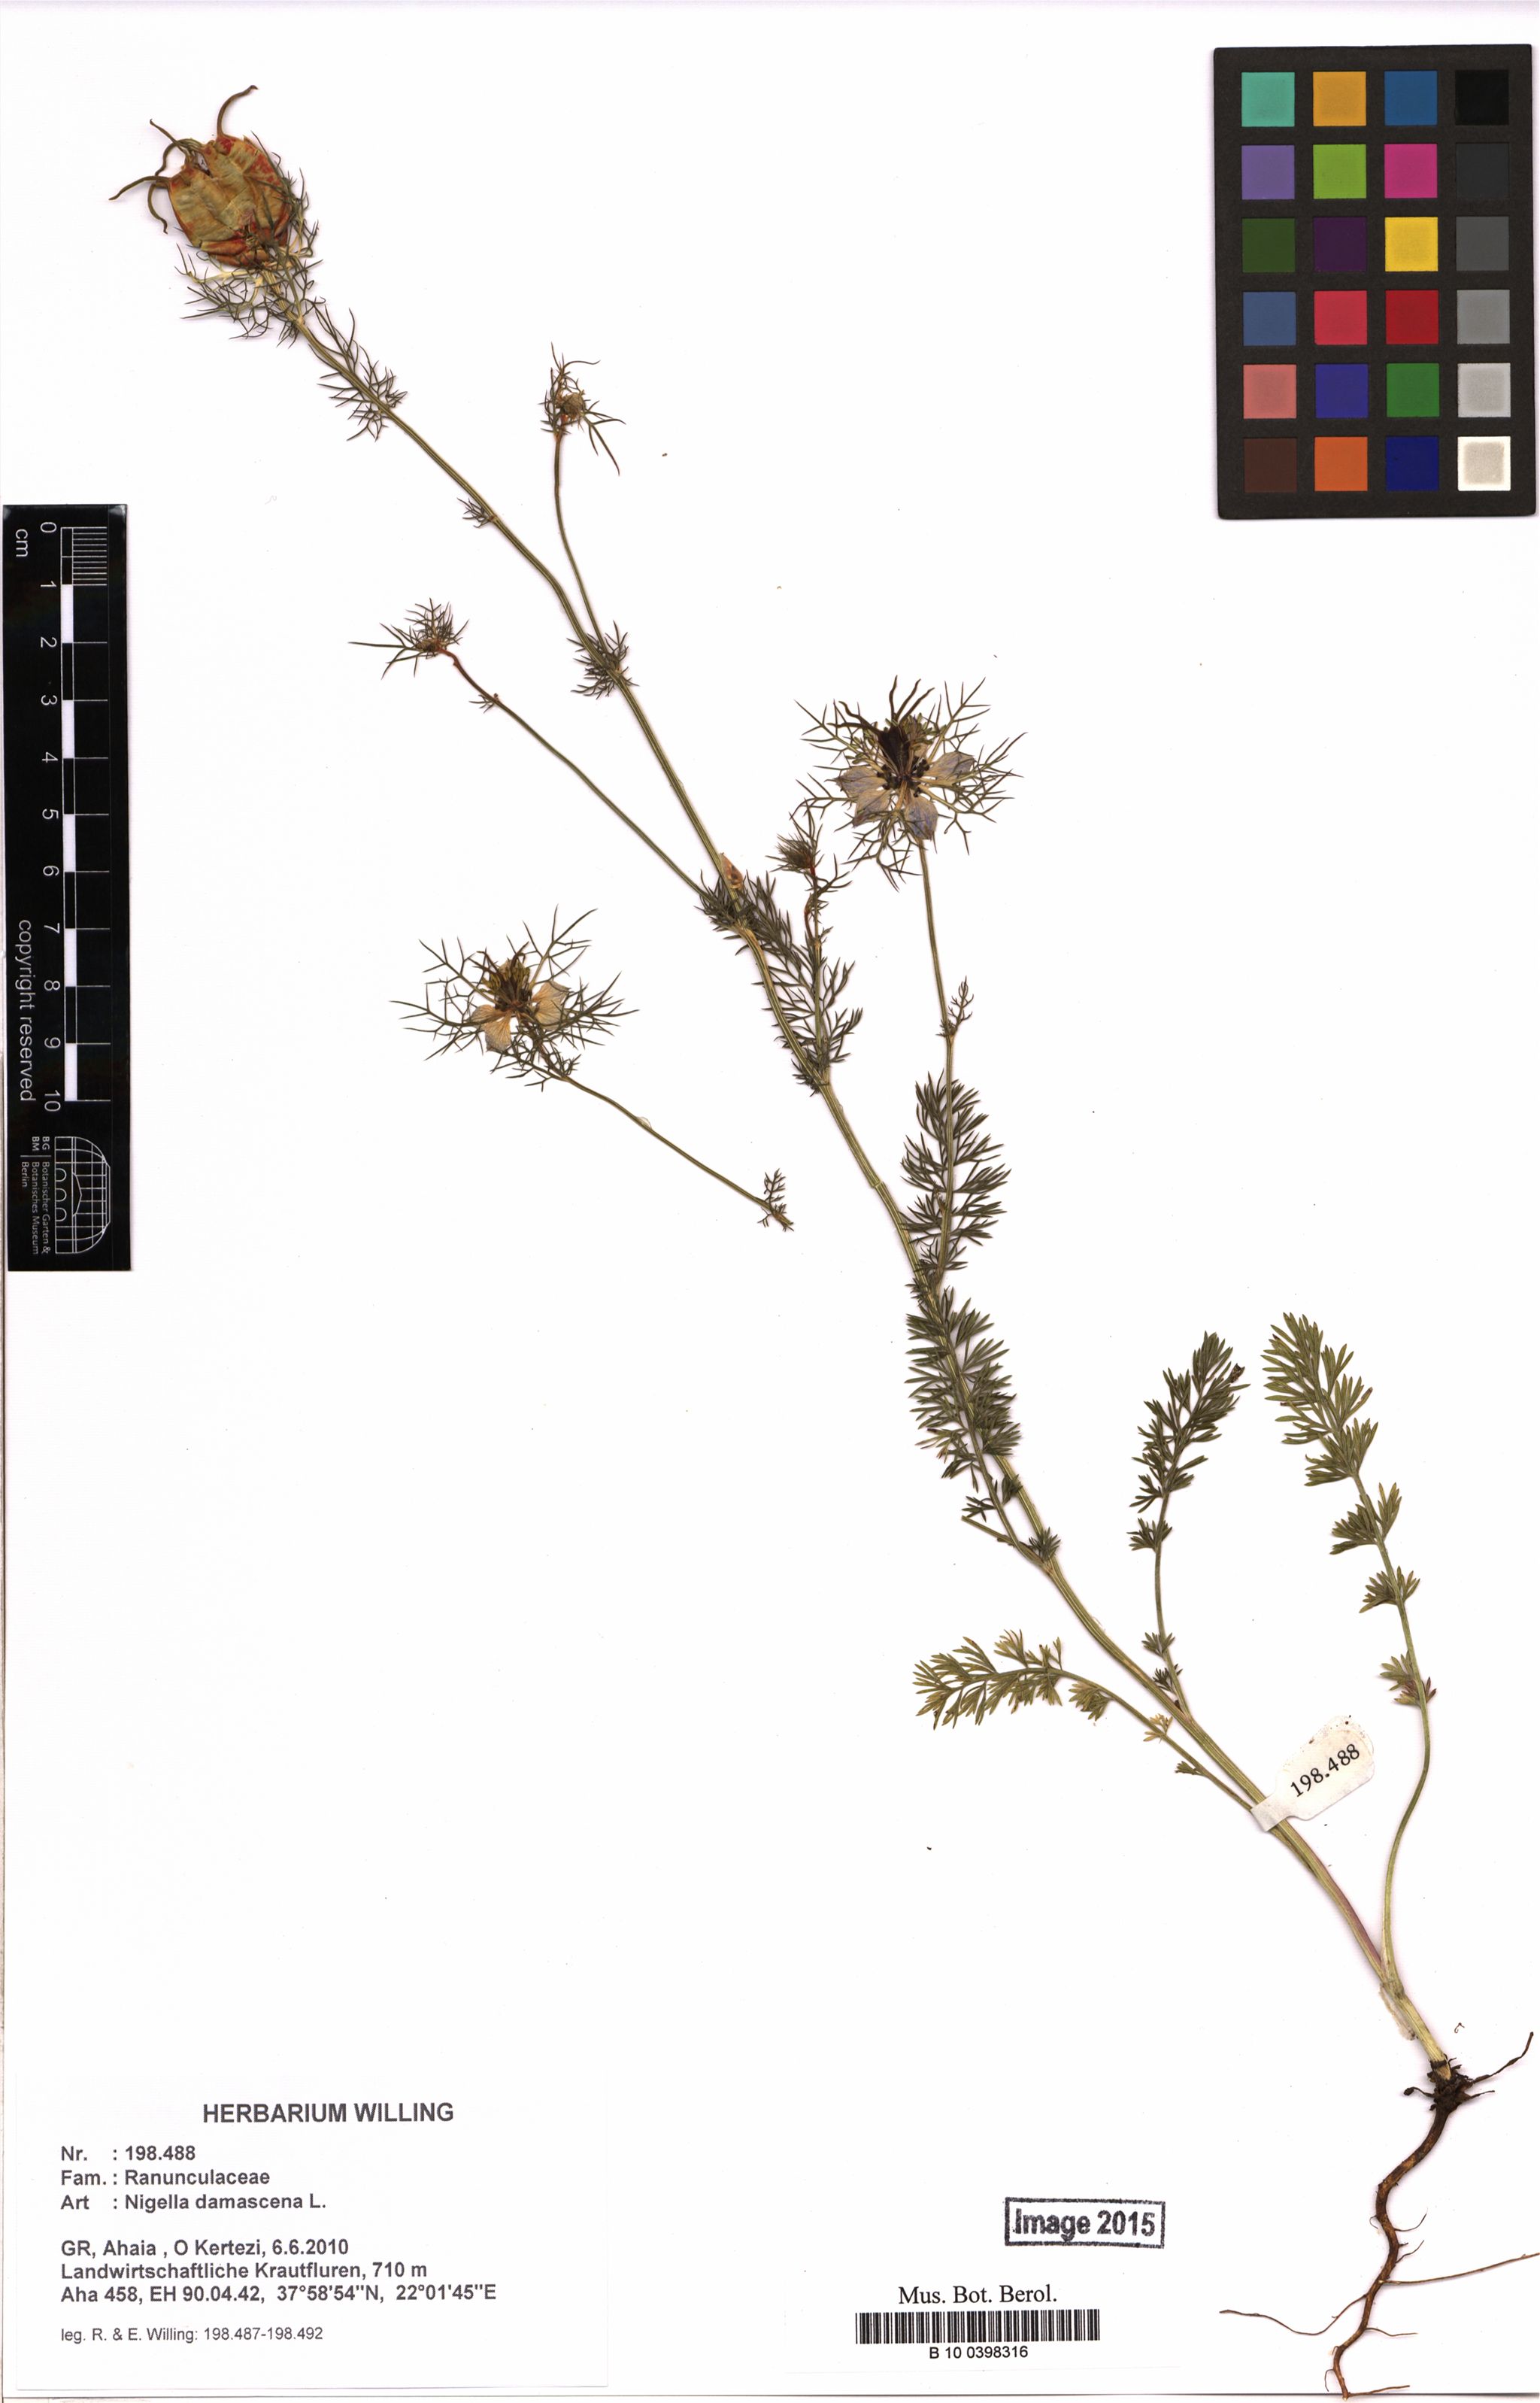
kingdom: Plantae
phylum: Tracheophyta
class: Magnoliopsida
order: Ranunculales
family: Ranunculaceae
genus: Nigella
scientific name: Nigella damascena
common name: Love-in-a-mist
